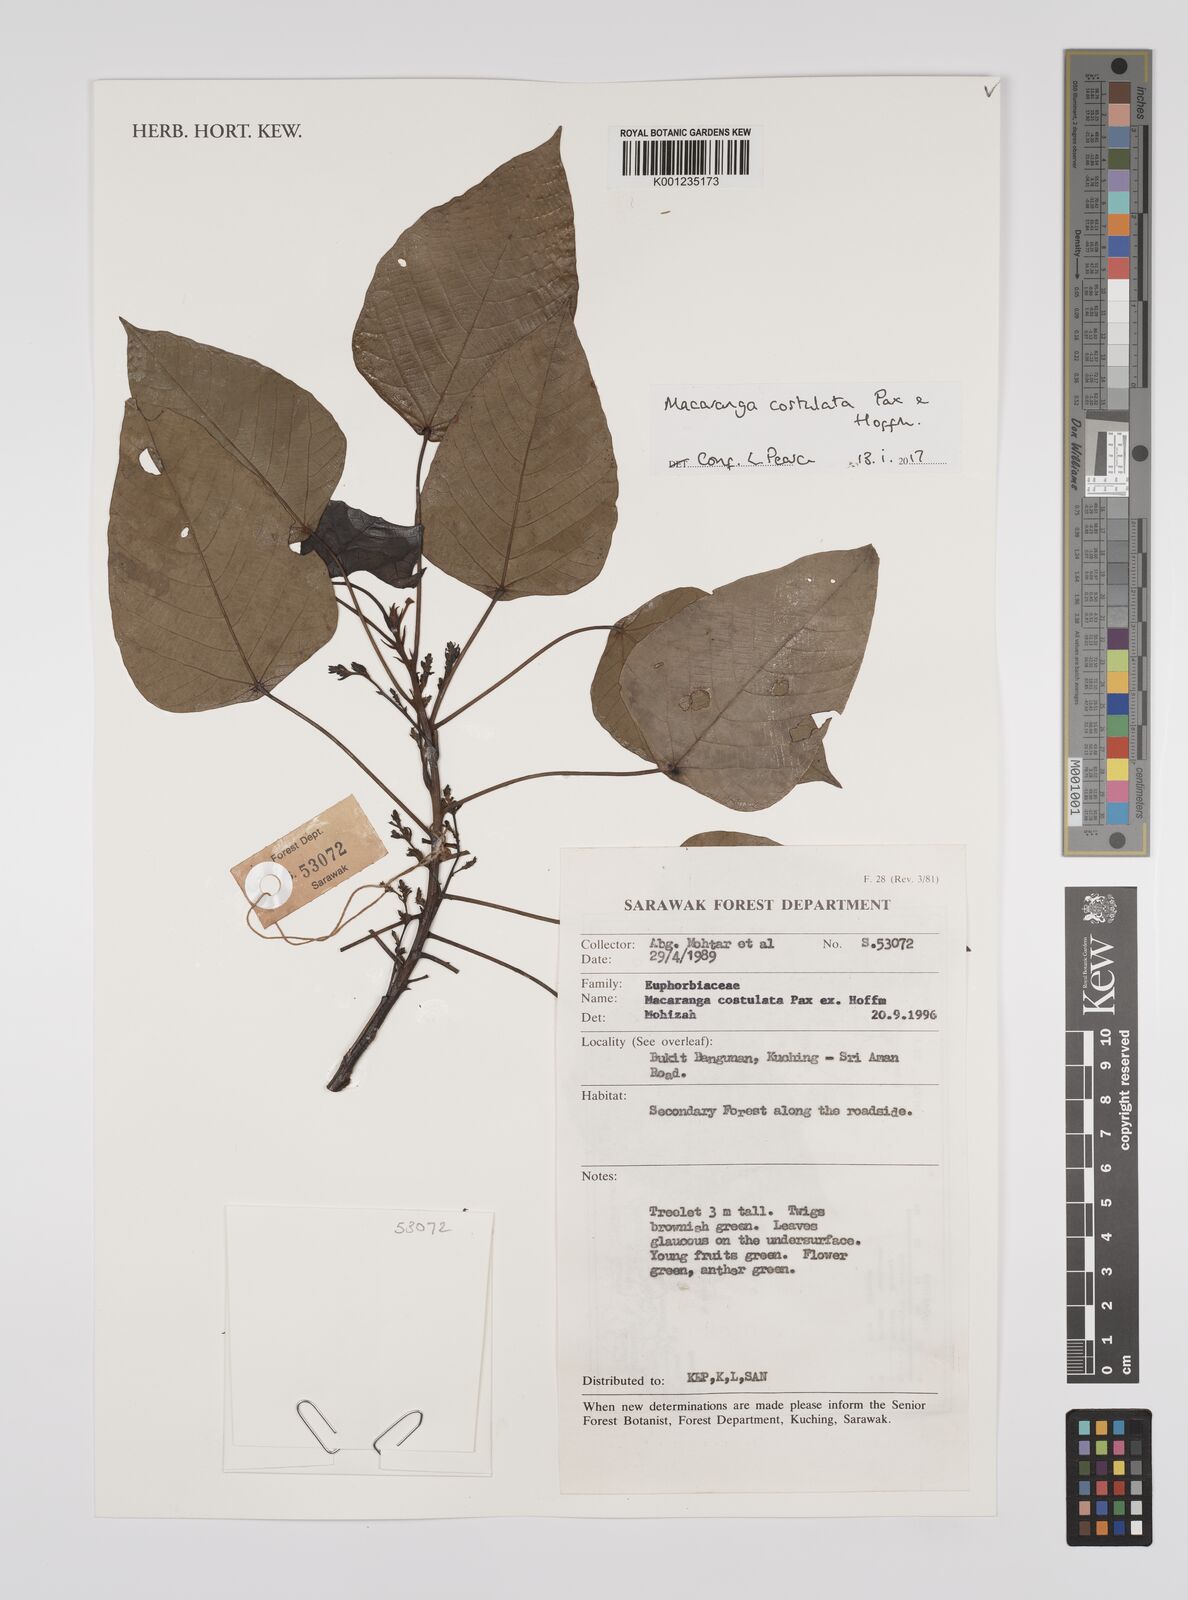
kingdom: Plantae
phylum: Tracheophyta
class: Magnoliopsida
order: Malpighiales
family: Euphorbiaceae
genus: Macaranga
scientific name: Macaranga costulata
